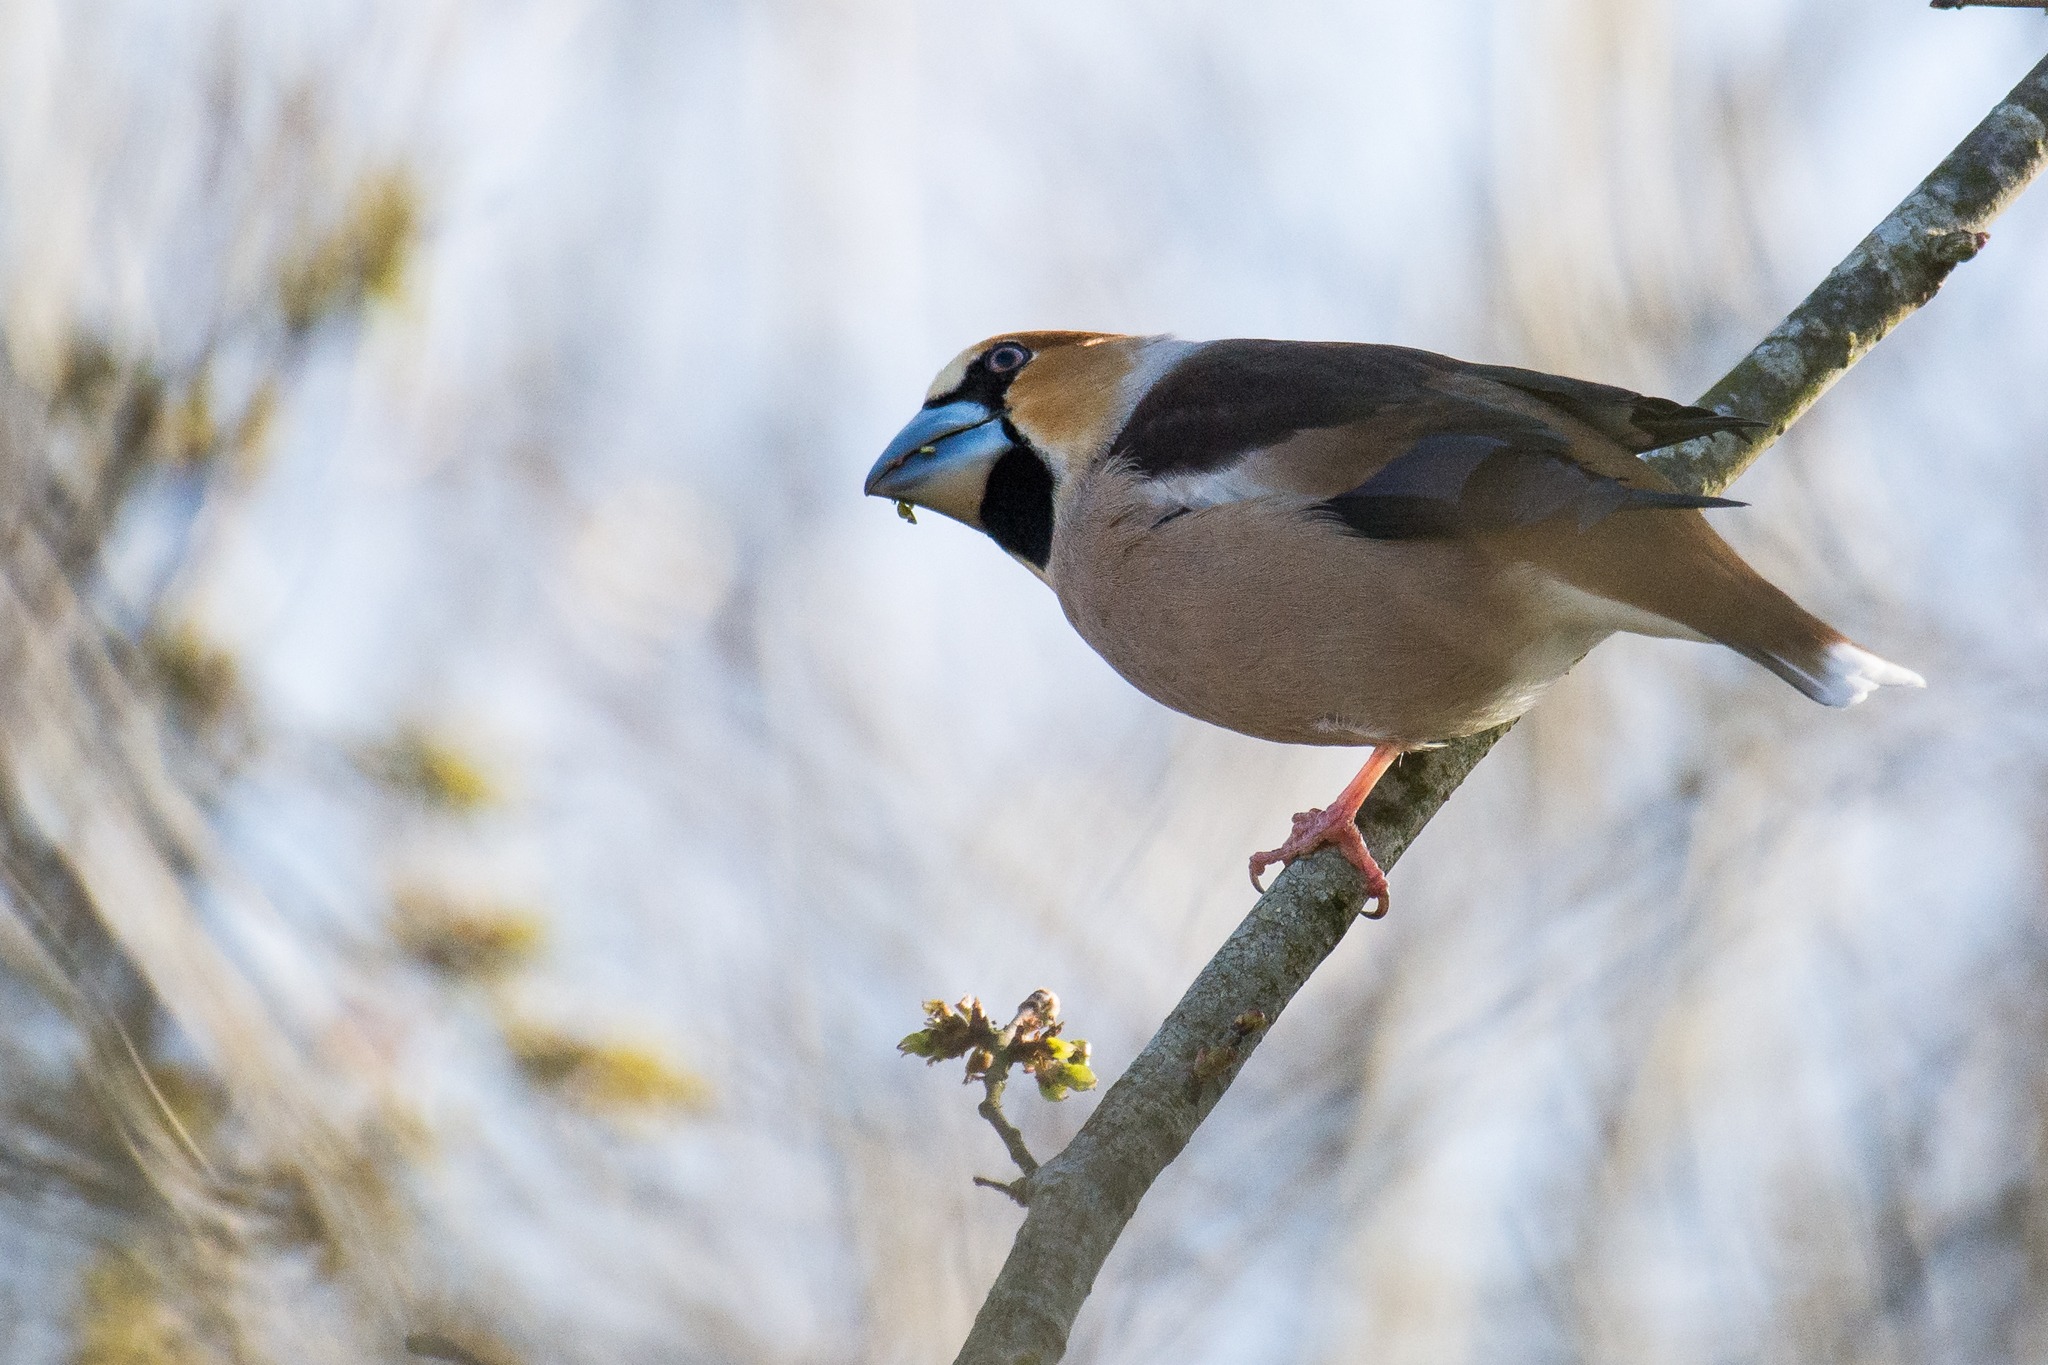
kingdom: Animalia
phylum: Chordata
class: Aves
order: Passeriformes
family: Fringillidae
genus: Coccothraustes
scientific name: Coccothraustes coccothraustes
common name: Kernebider
